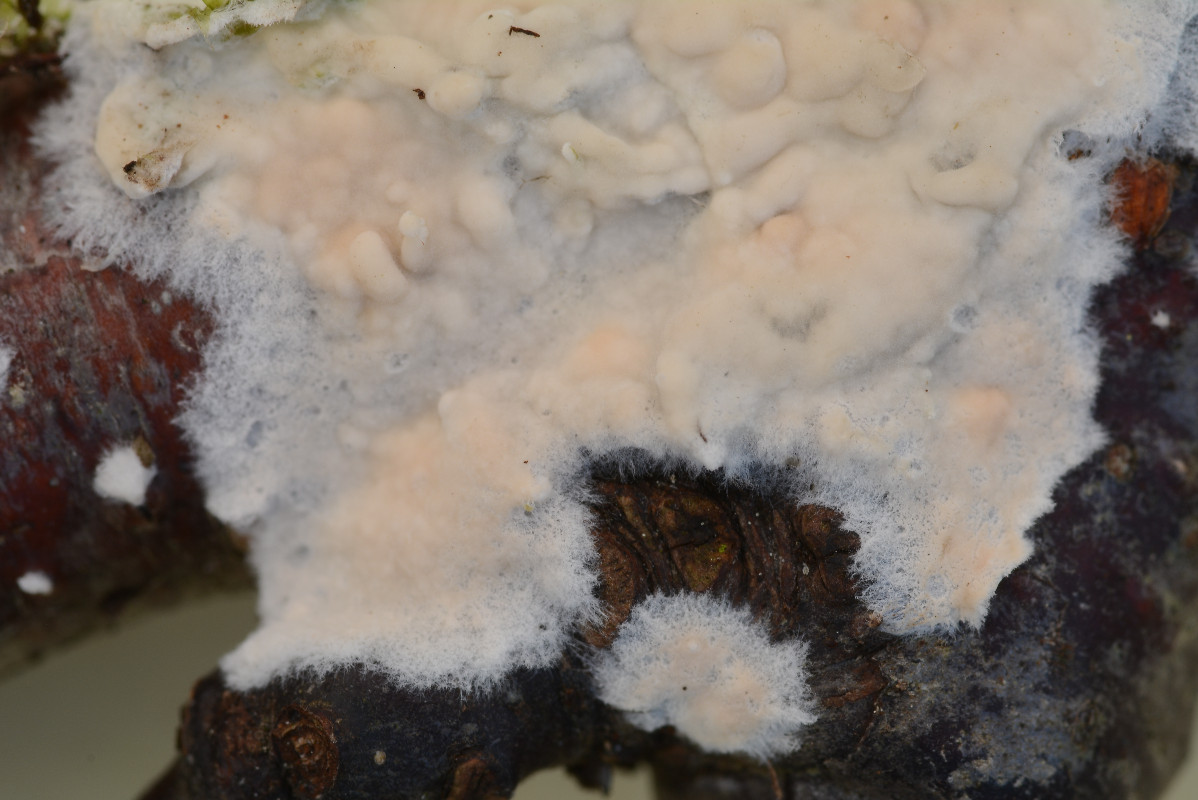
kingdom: Fungi
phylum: Basidiomycota
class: Agaricomycetes
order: Agaricales
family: Physalacriaceae
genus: Cylindrobasidium
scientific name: Cylindrobasidium evolvens
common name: sprækkehinde
